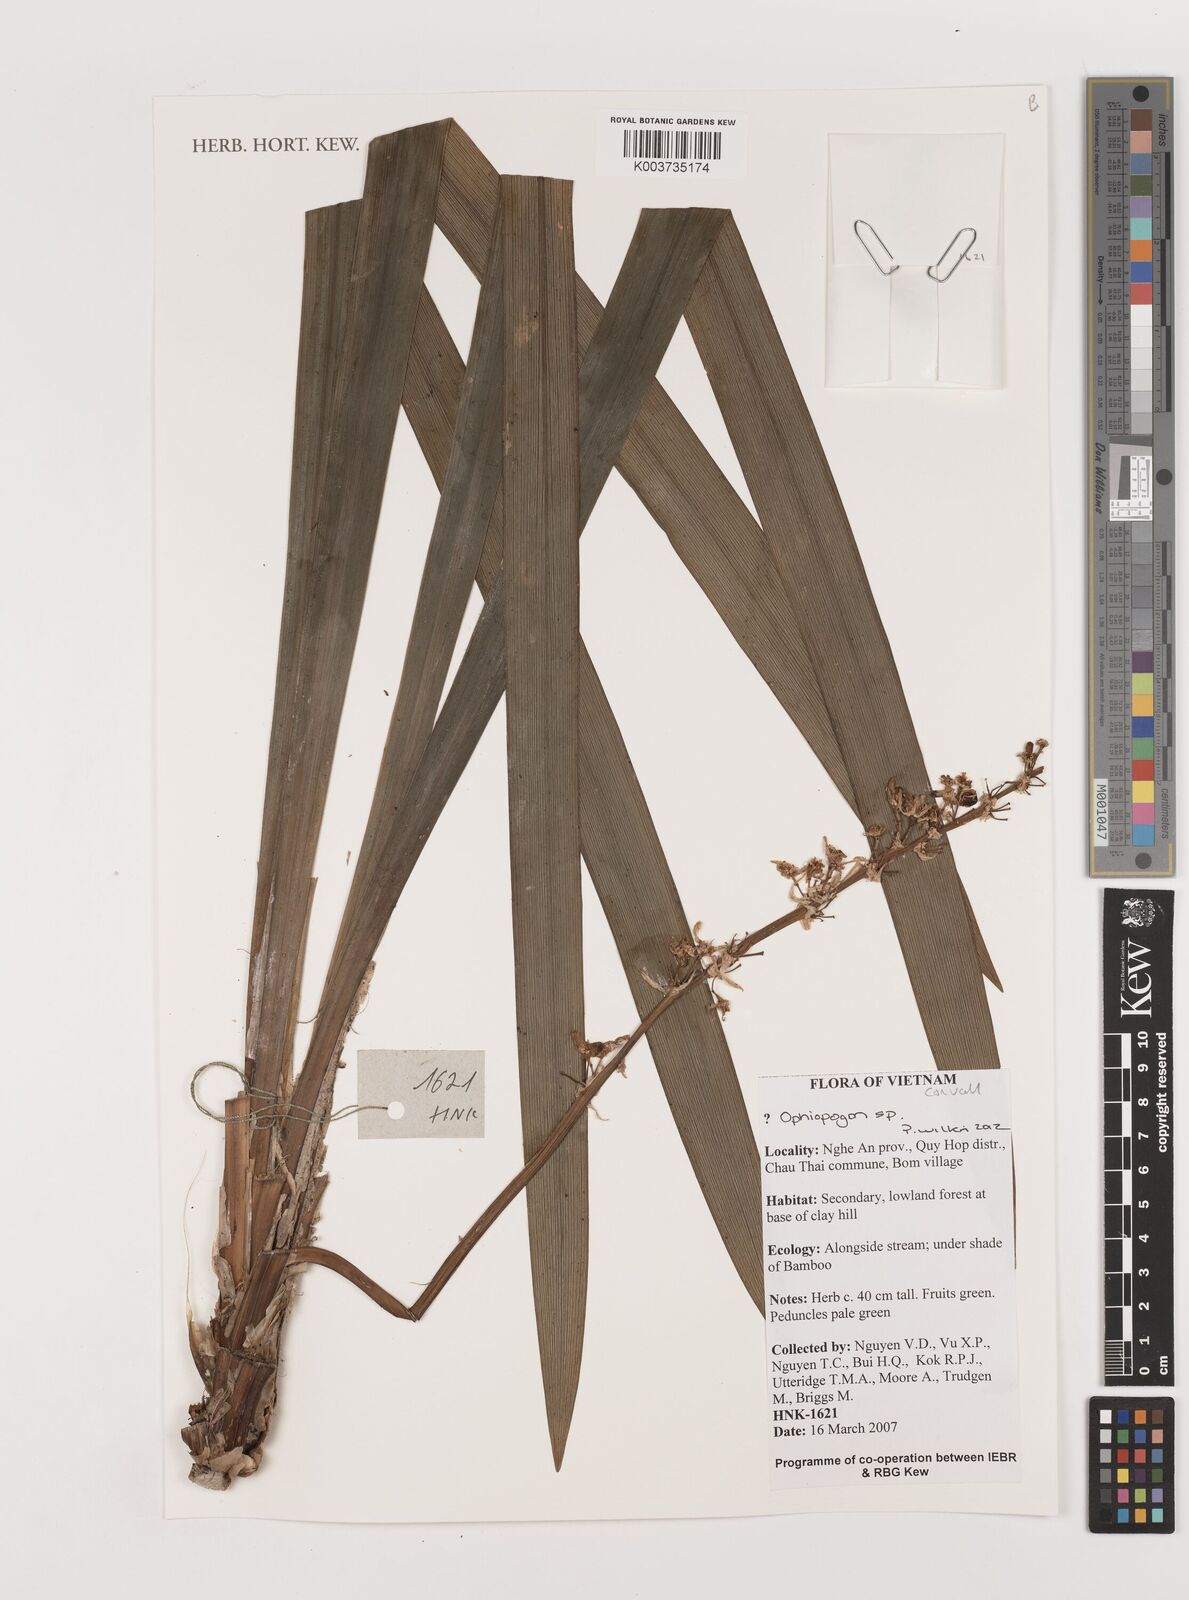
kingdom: Plantae
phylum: Tracheophyta
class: Liliopsida
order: Asparagales
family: Asparagaceae
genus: Ophiopogon
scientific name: Ophiopogon
